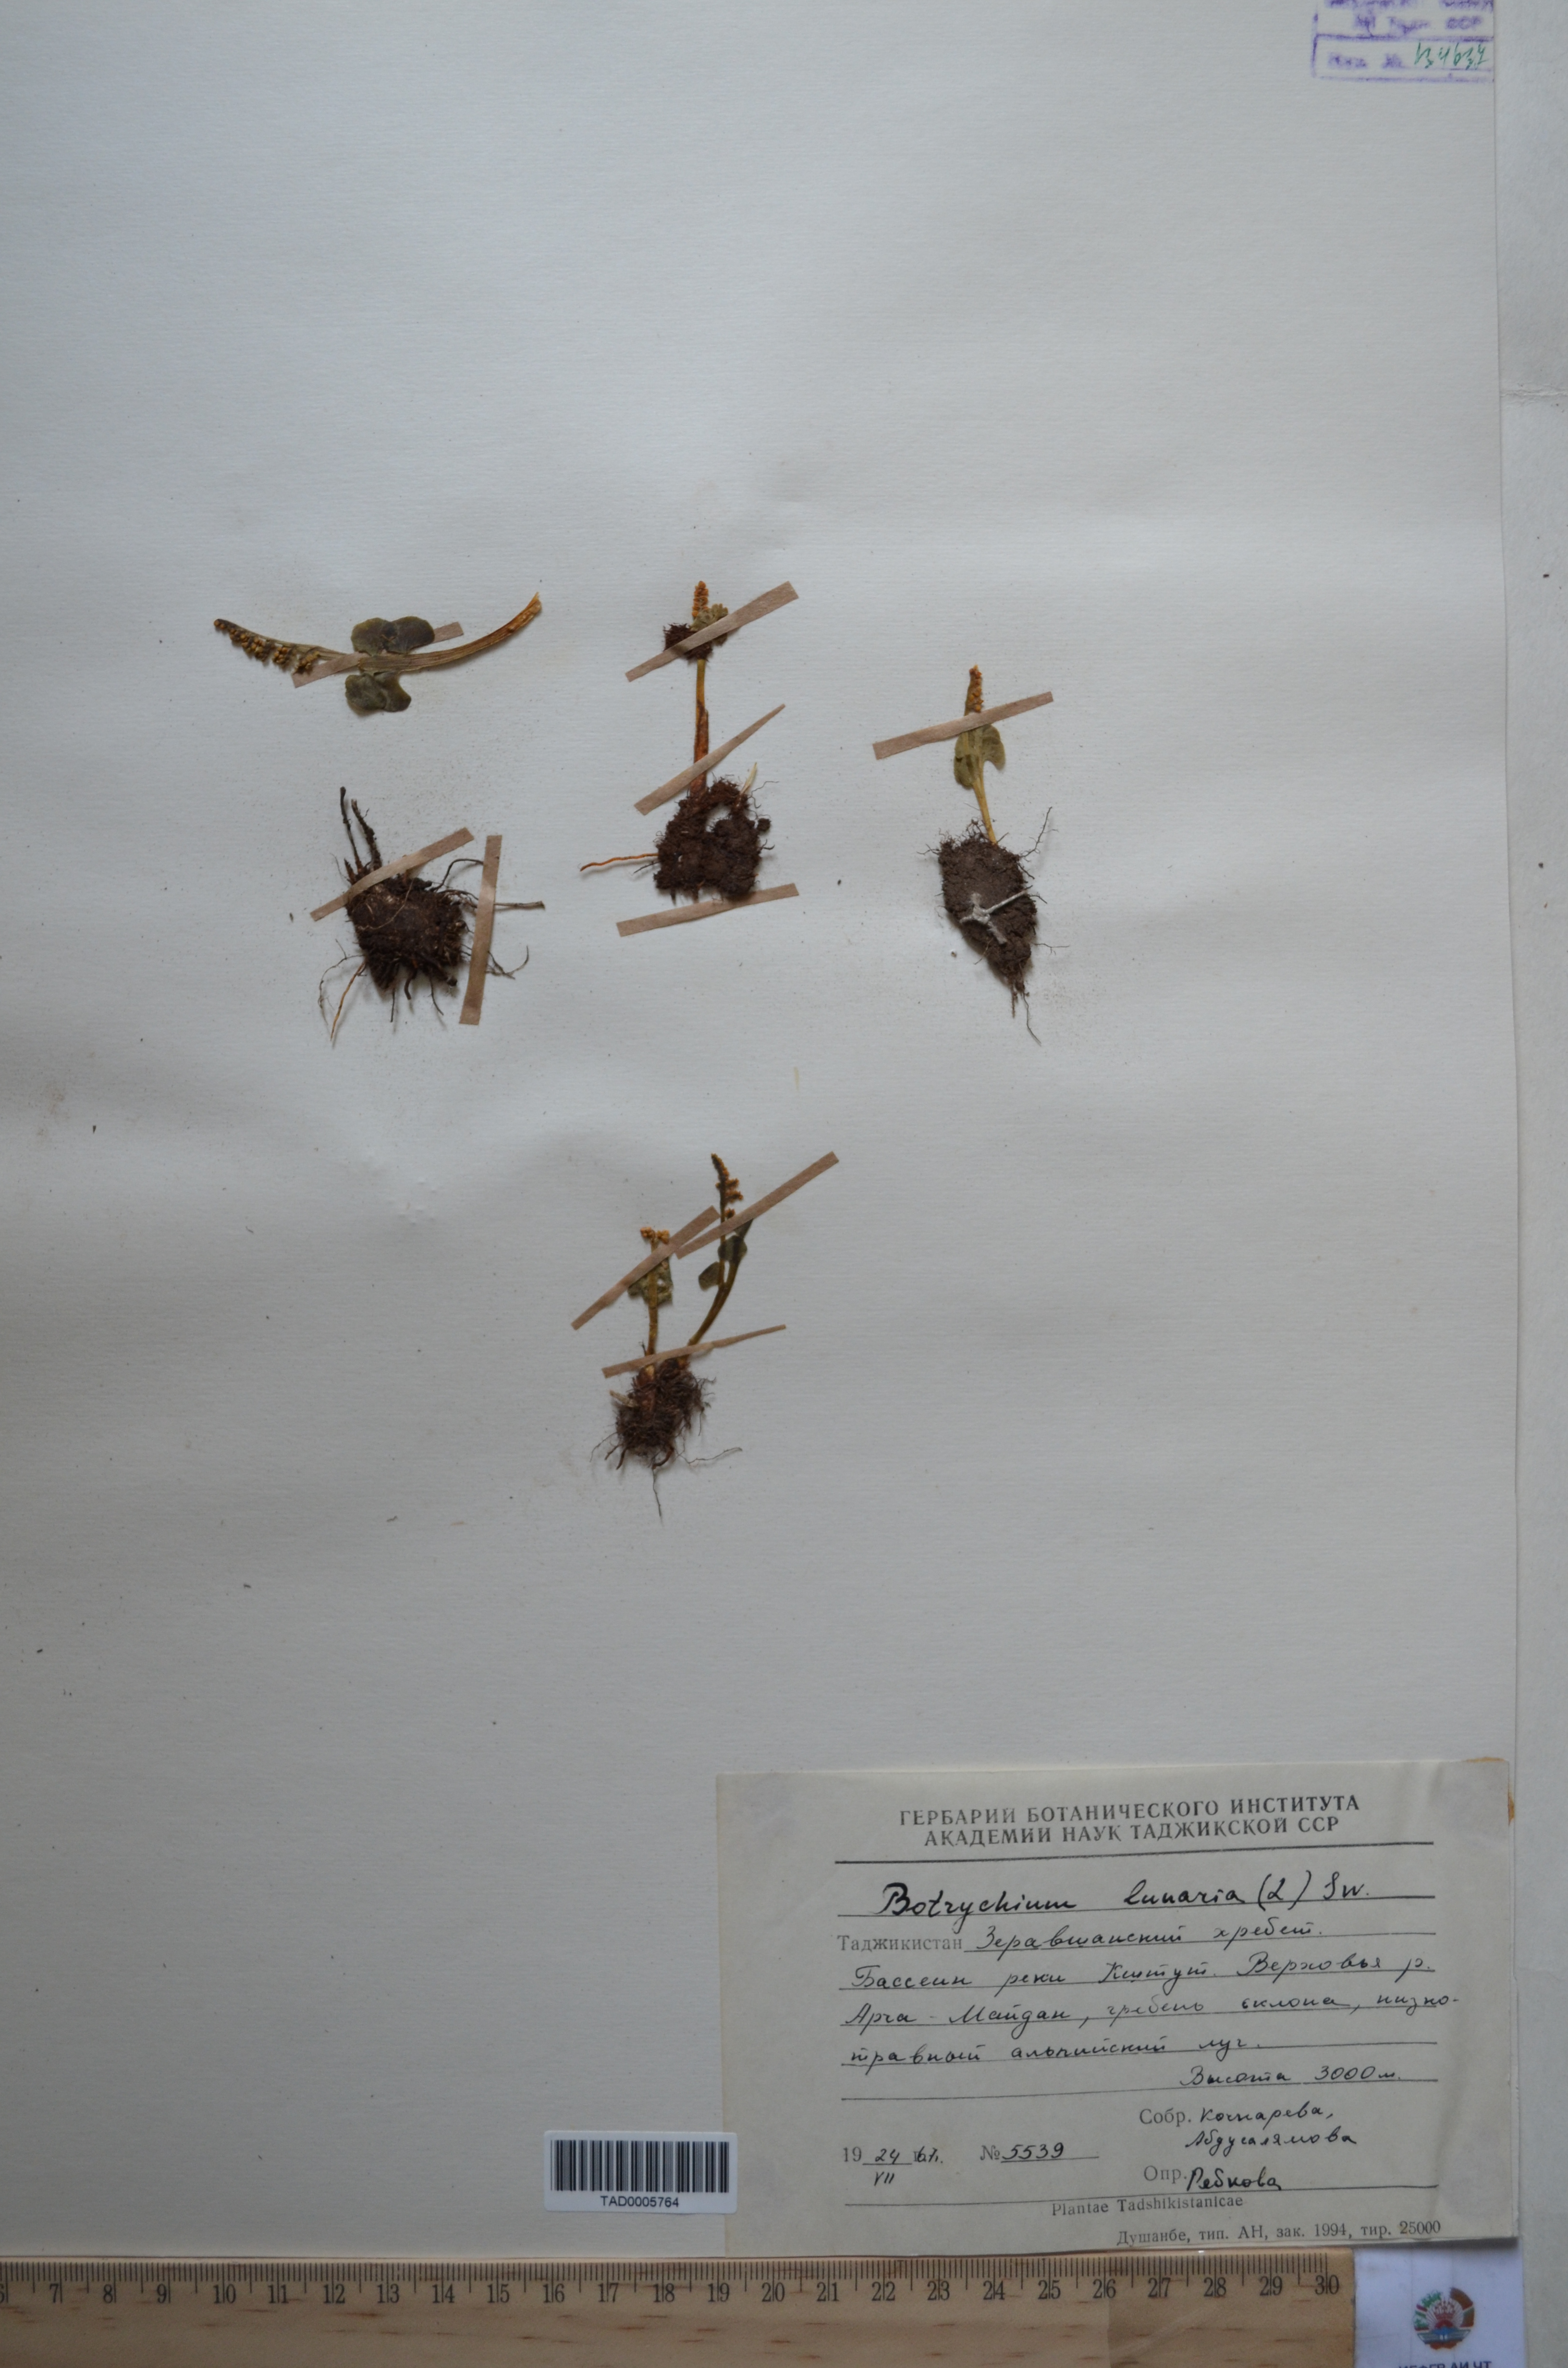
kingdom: Plantae
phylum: Tracheophyta
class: Polypodiopsida
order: Ophioglossales
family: Ophioglossaceae
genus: Botrychium
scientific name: Botrychium lunaria
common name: Moonwort
